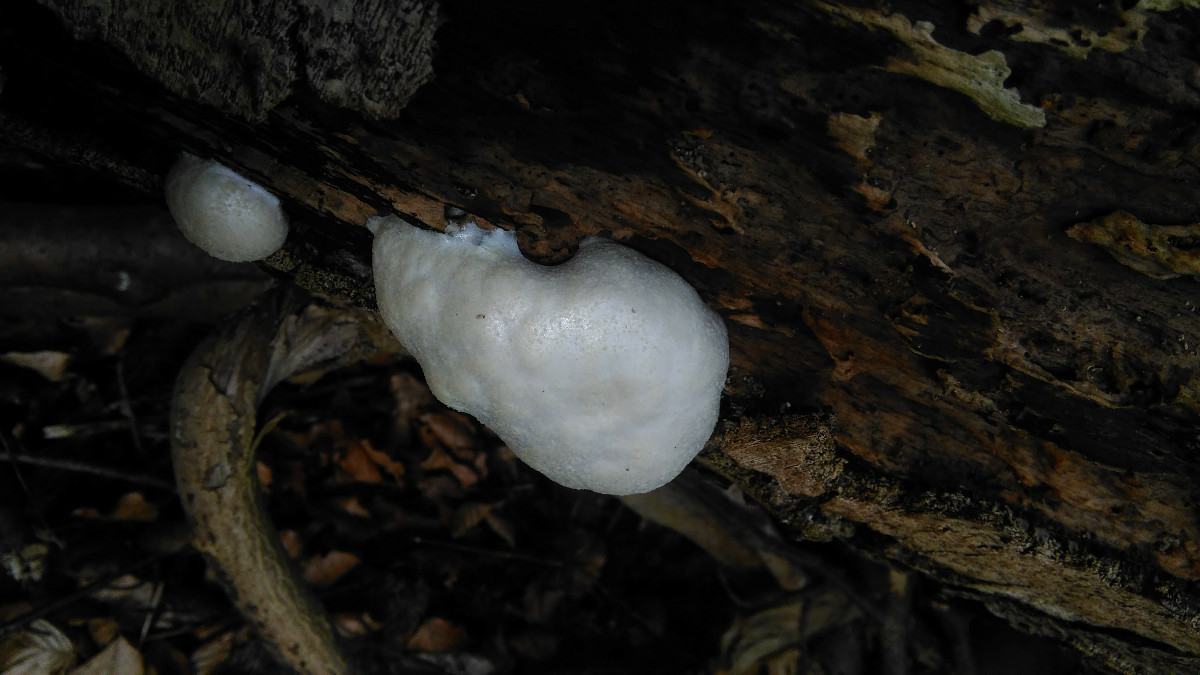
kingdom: Protozoa
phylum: Mycetozoa
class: Myxomycetes
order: Cribrariales
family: Tubiferaceae
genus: Reticularia
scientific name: Reticularia lycoperdon
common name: skinnende støvpude
